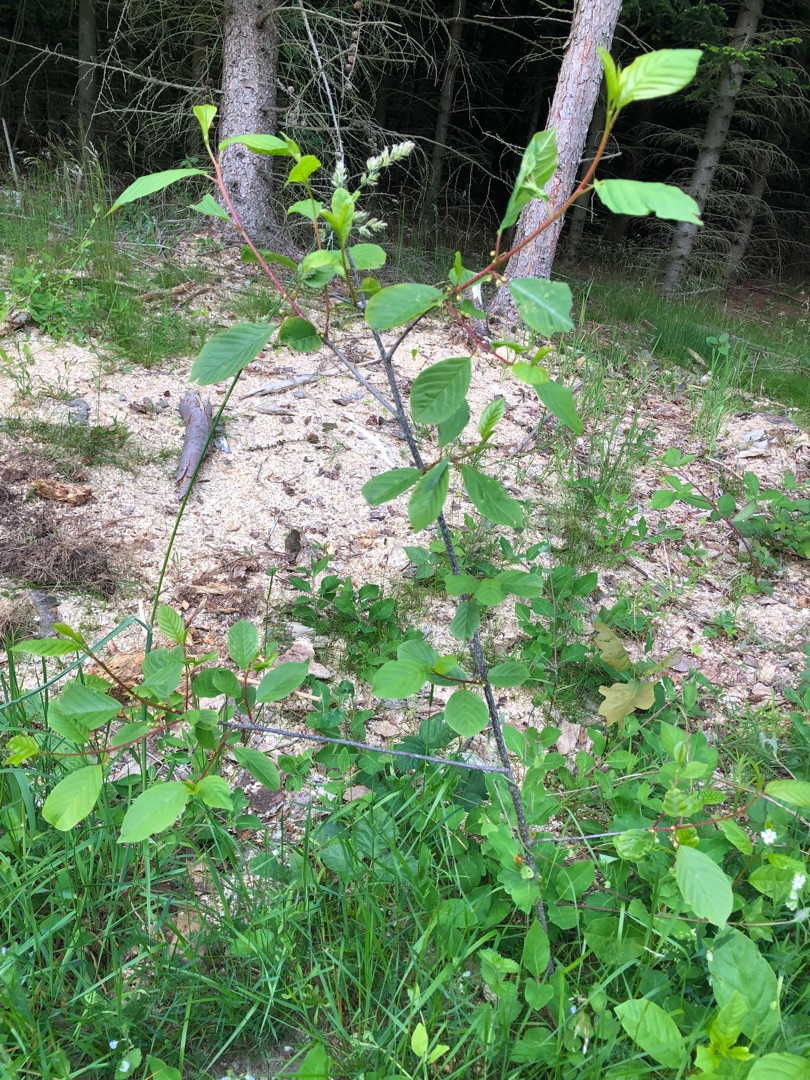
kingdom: Plantae
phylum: Tracheophyta
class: Magnoliopsida
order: Rosales
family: Rhamnaceae
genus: Frangula
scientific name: Frangula alnus
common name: Tørst
